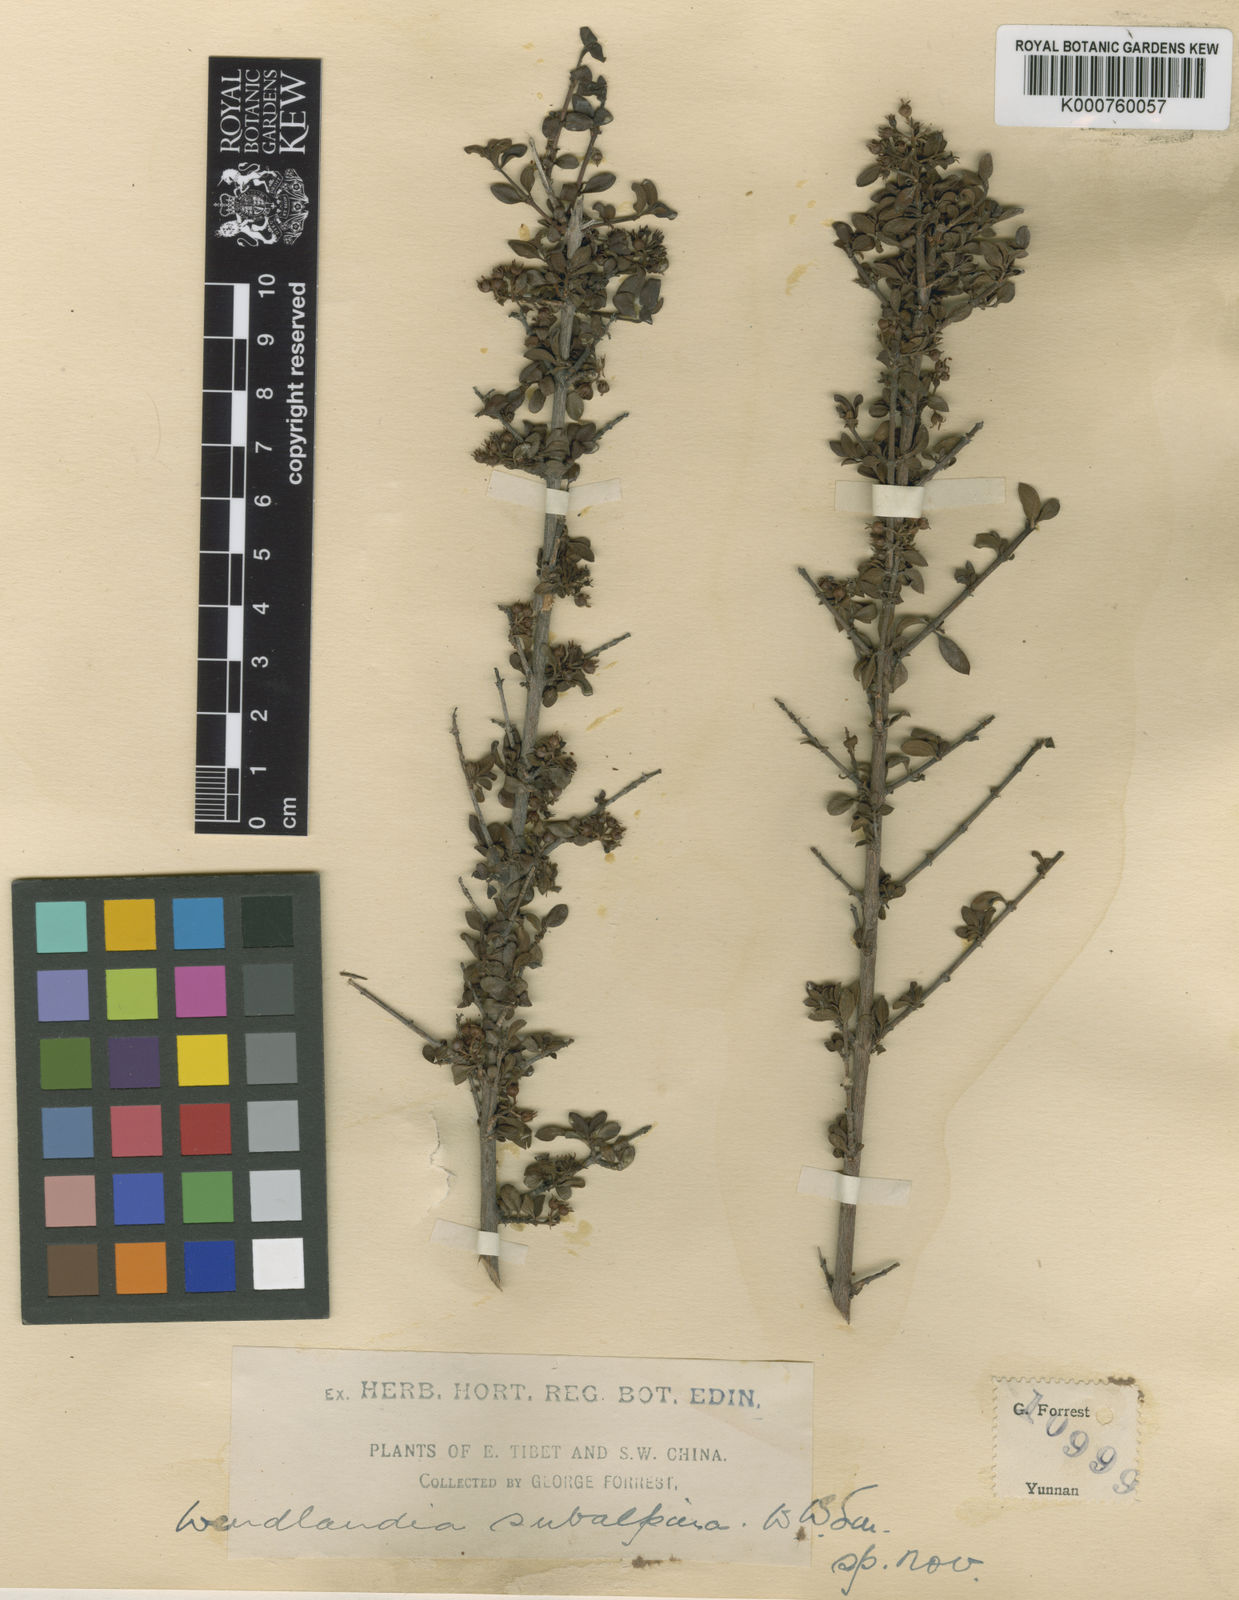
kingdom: Plantae
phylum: Tracheophyta
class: Magnoliopsida
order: Gentianales
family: Rubiaceae
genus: Wendlandia
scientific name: Wendlandia subalpina
